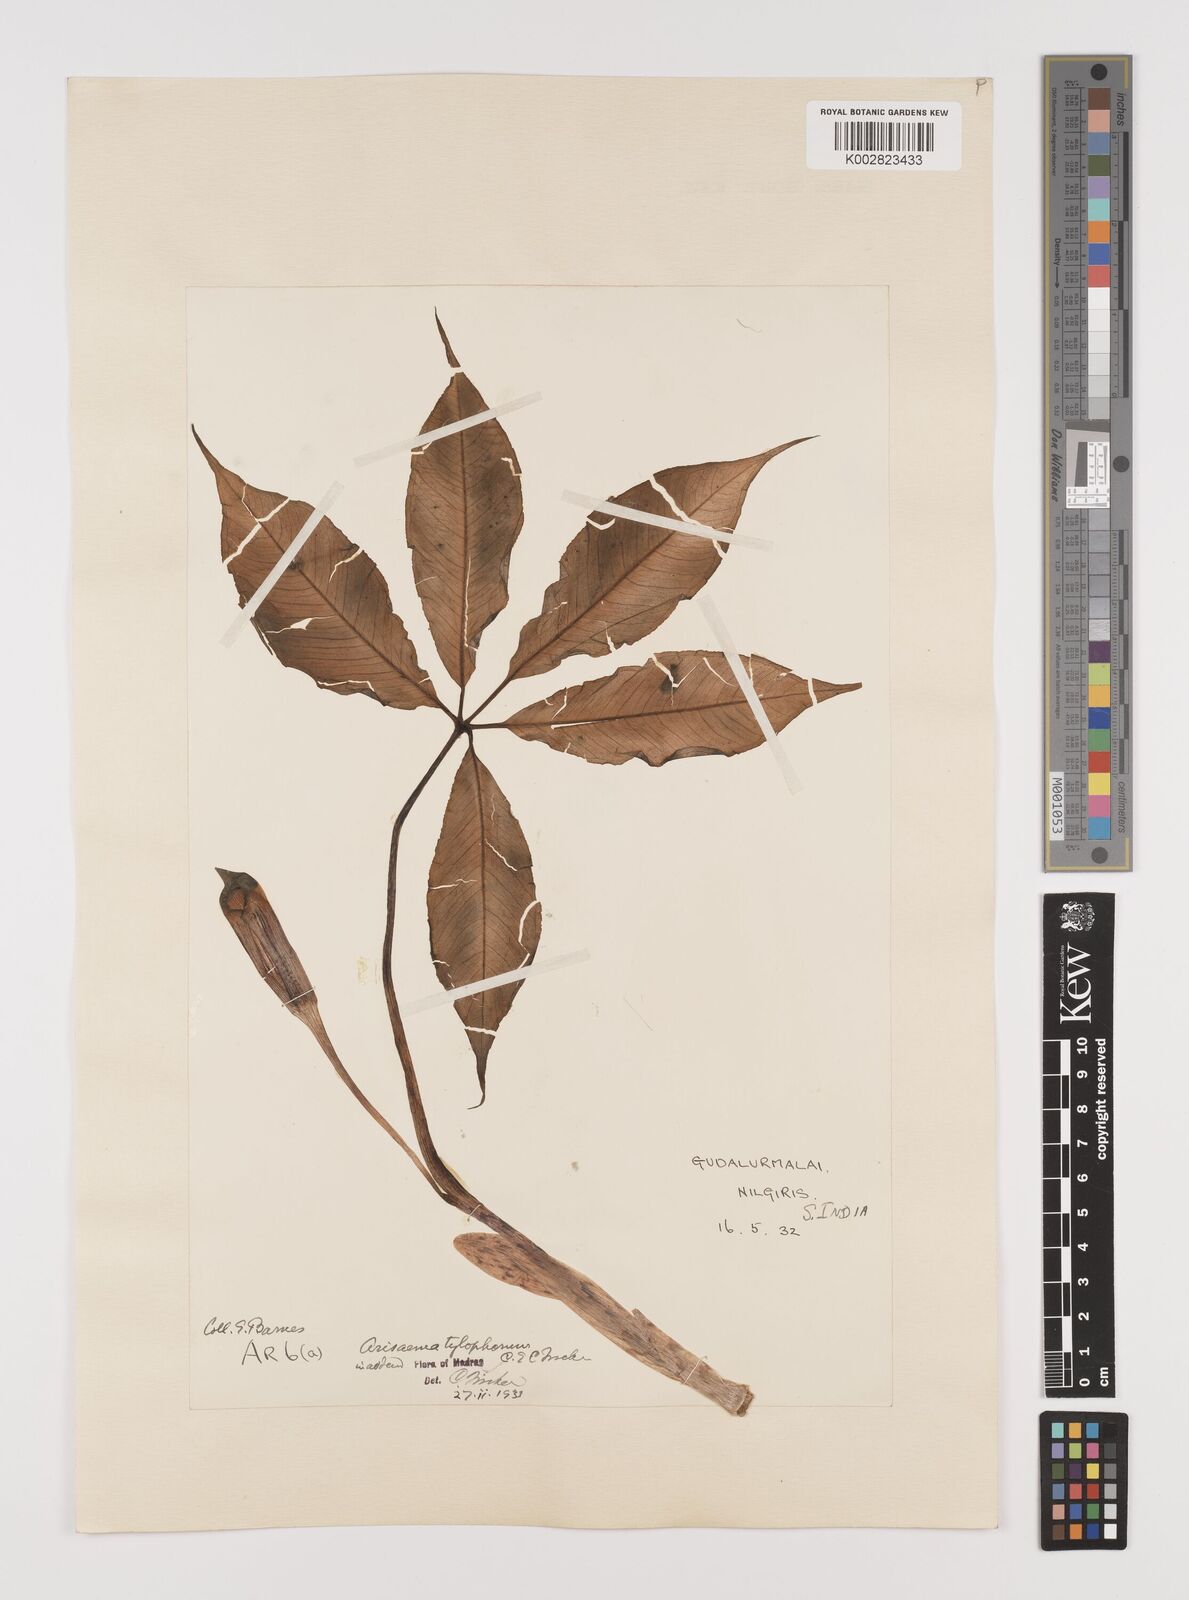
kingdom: Plantae
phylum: Tracheophyta
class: Liliopsida
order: Alismatales
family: Araceae
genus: Arisaema
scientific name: Arisaema barnesii
